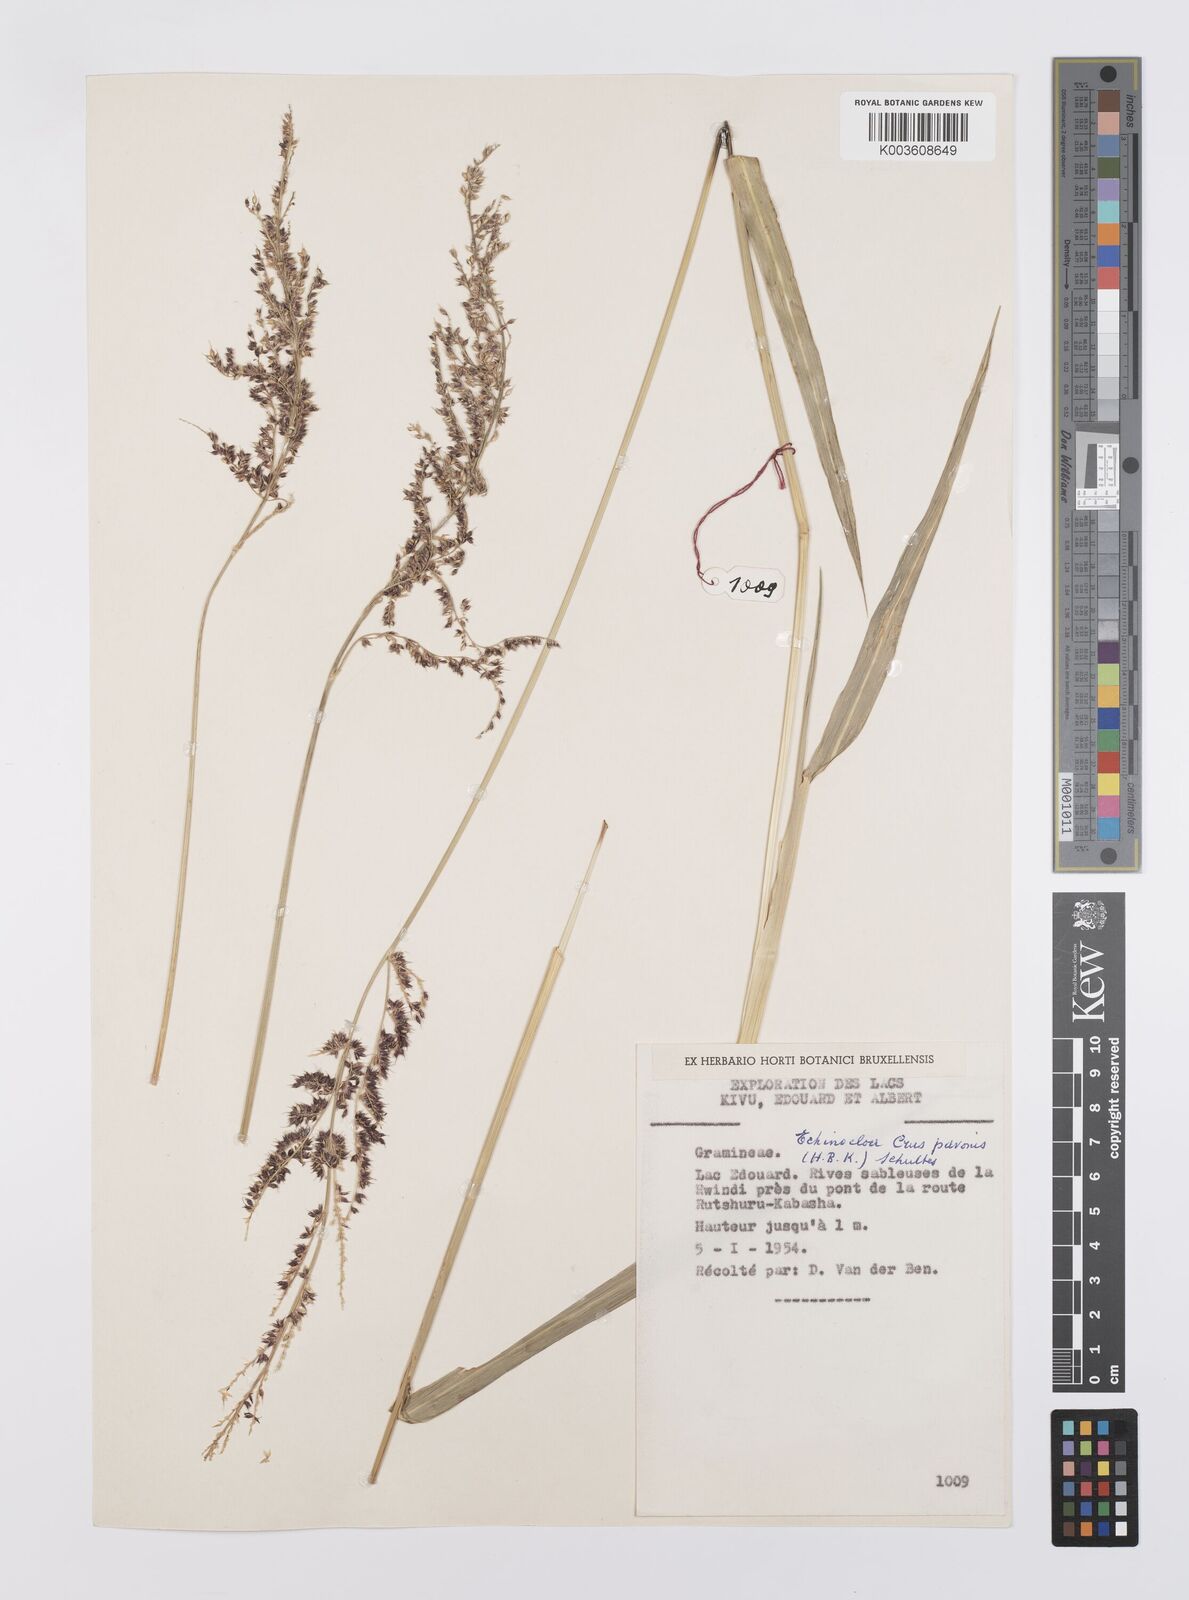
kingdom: Plantae
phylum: Tracheophyta
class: Liliopsida
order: Poales
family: Poaceae
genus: Echinochloa
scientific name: Echinochloa crus-pavonis
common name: Gulf cockspur grass
